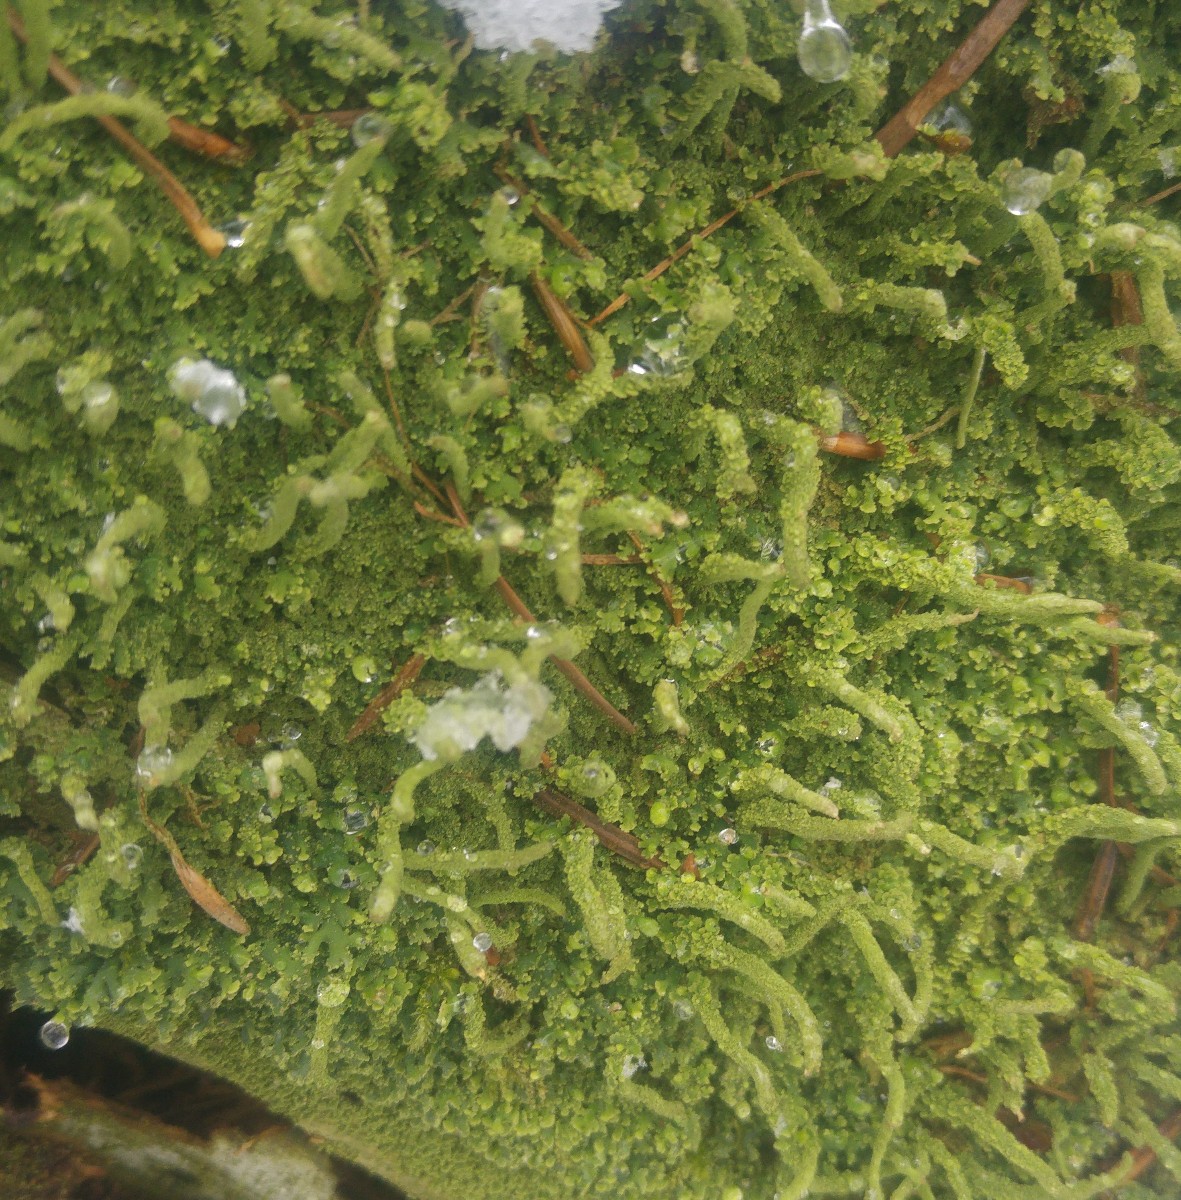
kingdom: Fungi
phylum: Ascomycota
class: Lecanoromycetes
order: Lecanorales
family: Cladoniaceae
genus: Cladonia
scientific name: Cladonia coniocraea
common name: træfods-bægerlav
